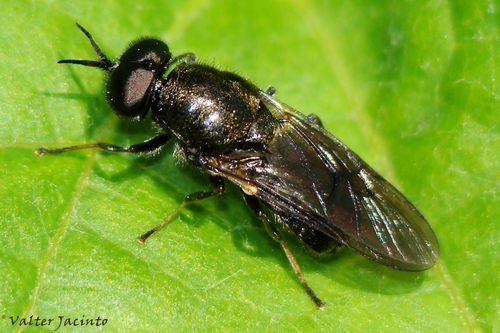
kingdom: Animalia
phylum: Arthropoda
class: Insecta
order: Diptera
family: Stratiomyidae
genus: Adoxomyia
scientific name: Adoxomyia dahlii
